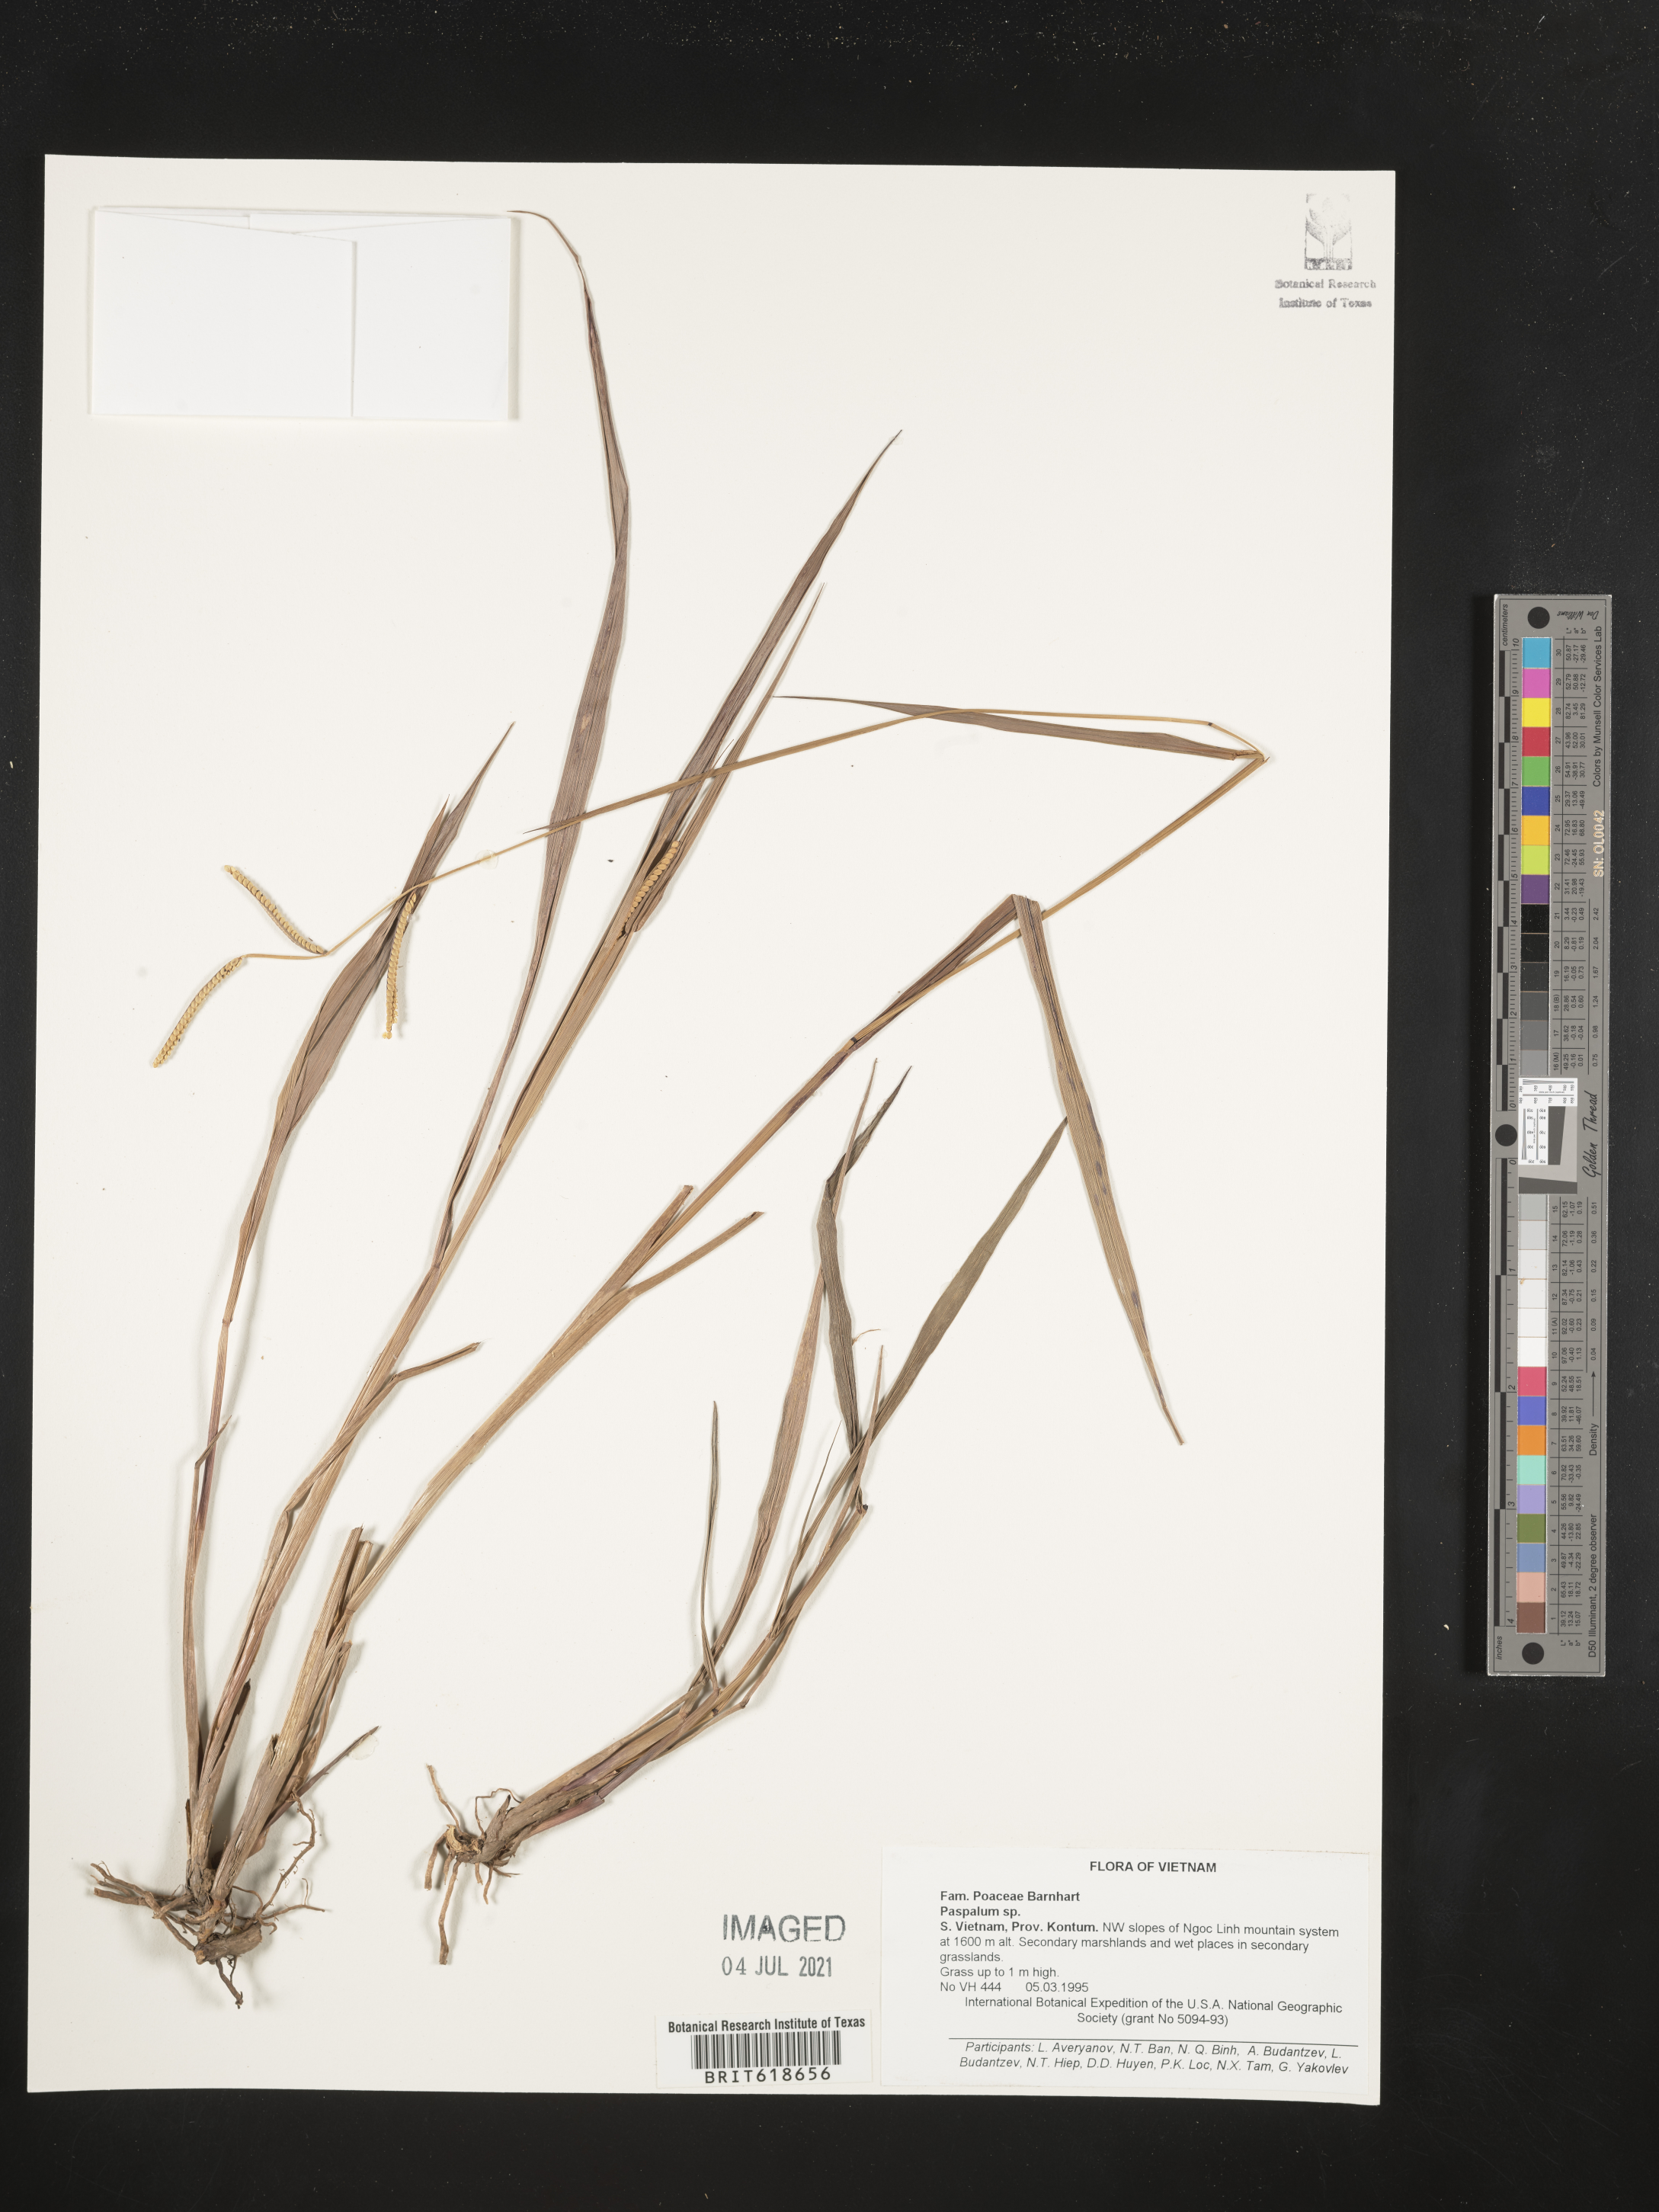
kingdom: Plantae
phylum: Tracheophyta
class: Liliopsida
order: Poales
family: Poaceae
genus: Paspalum
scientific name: Paspalum
